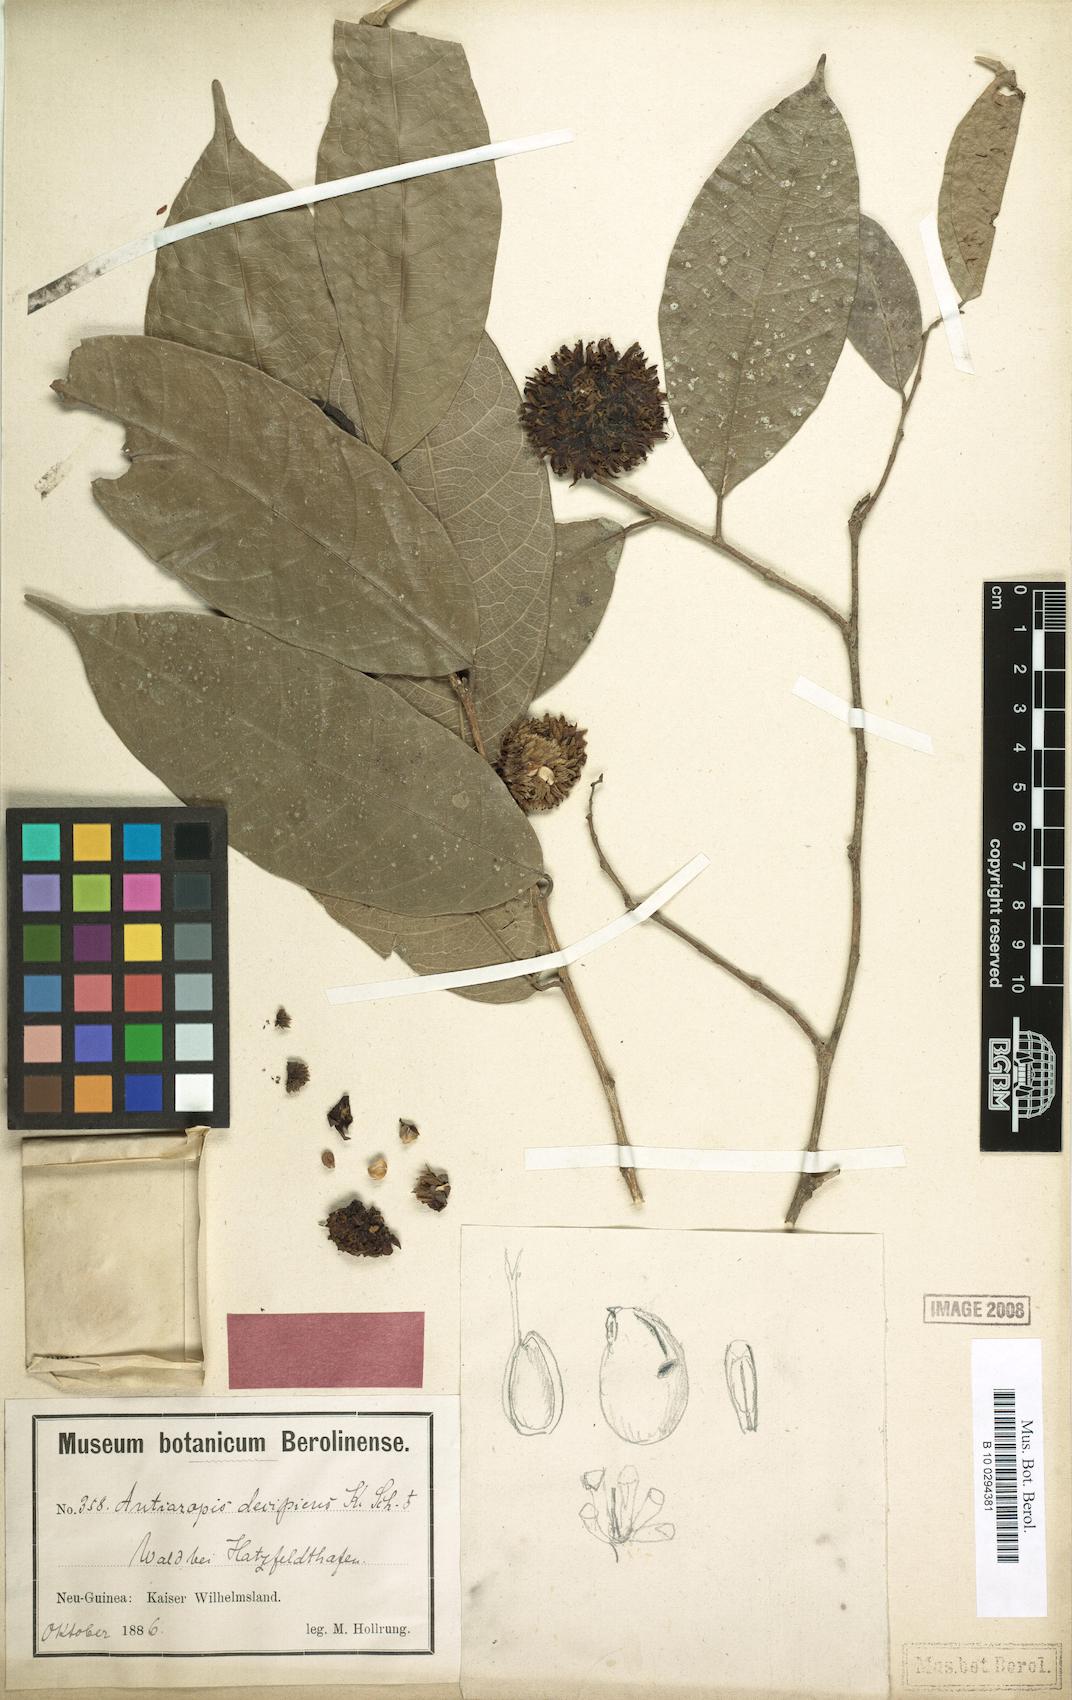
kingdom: Plantae
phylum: Tracheophyta
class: Magnoliopsida
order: Rosales
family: Moraceae
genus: Antiaropsis
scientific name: Antiaropsis decipiens
